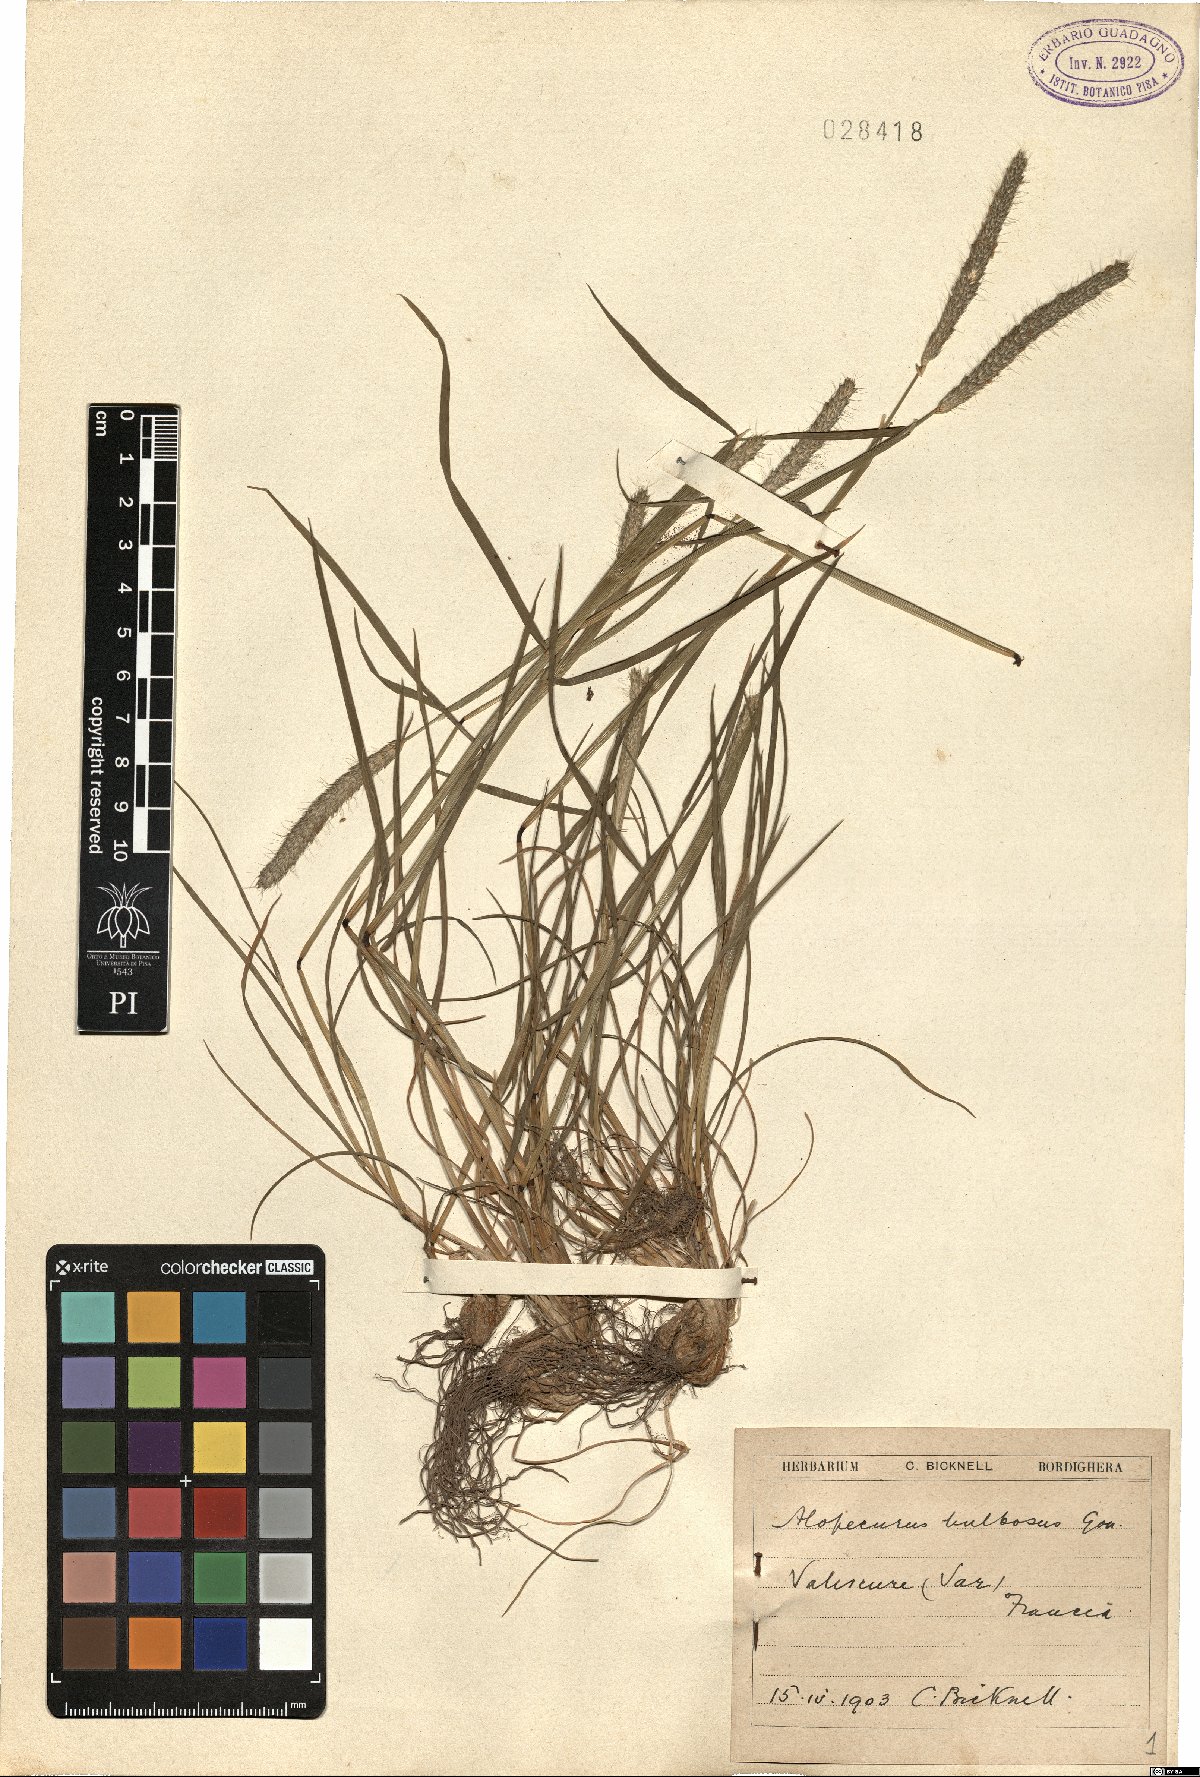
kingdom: Plantae
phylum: Tracheophyta
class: Liliopsida
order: Poales
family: Poaceae
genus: Alopecurus
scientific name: Alopecurus bulbosus
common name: Bulbous foxtail
